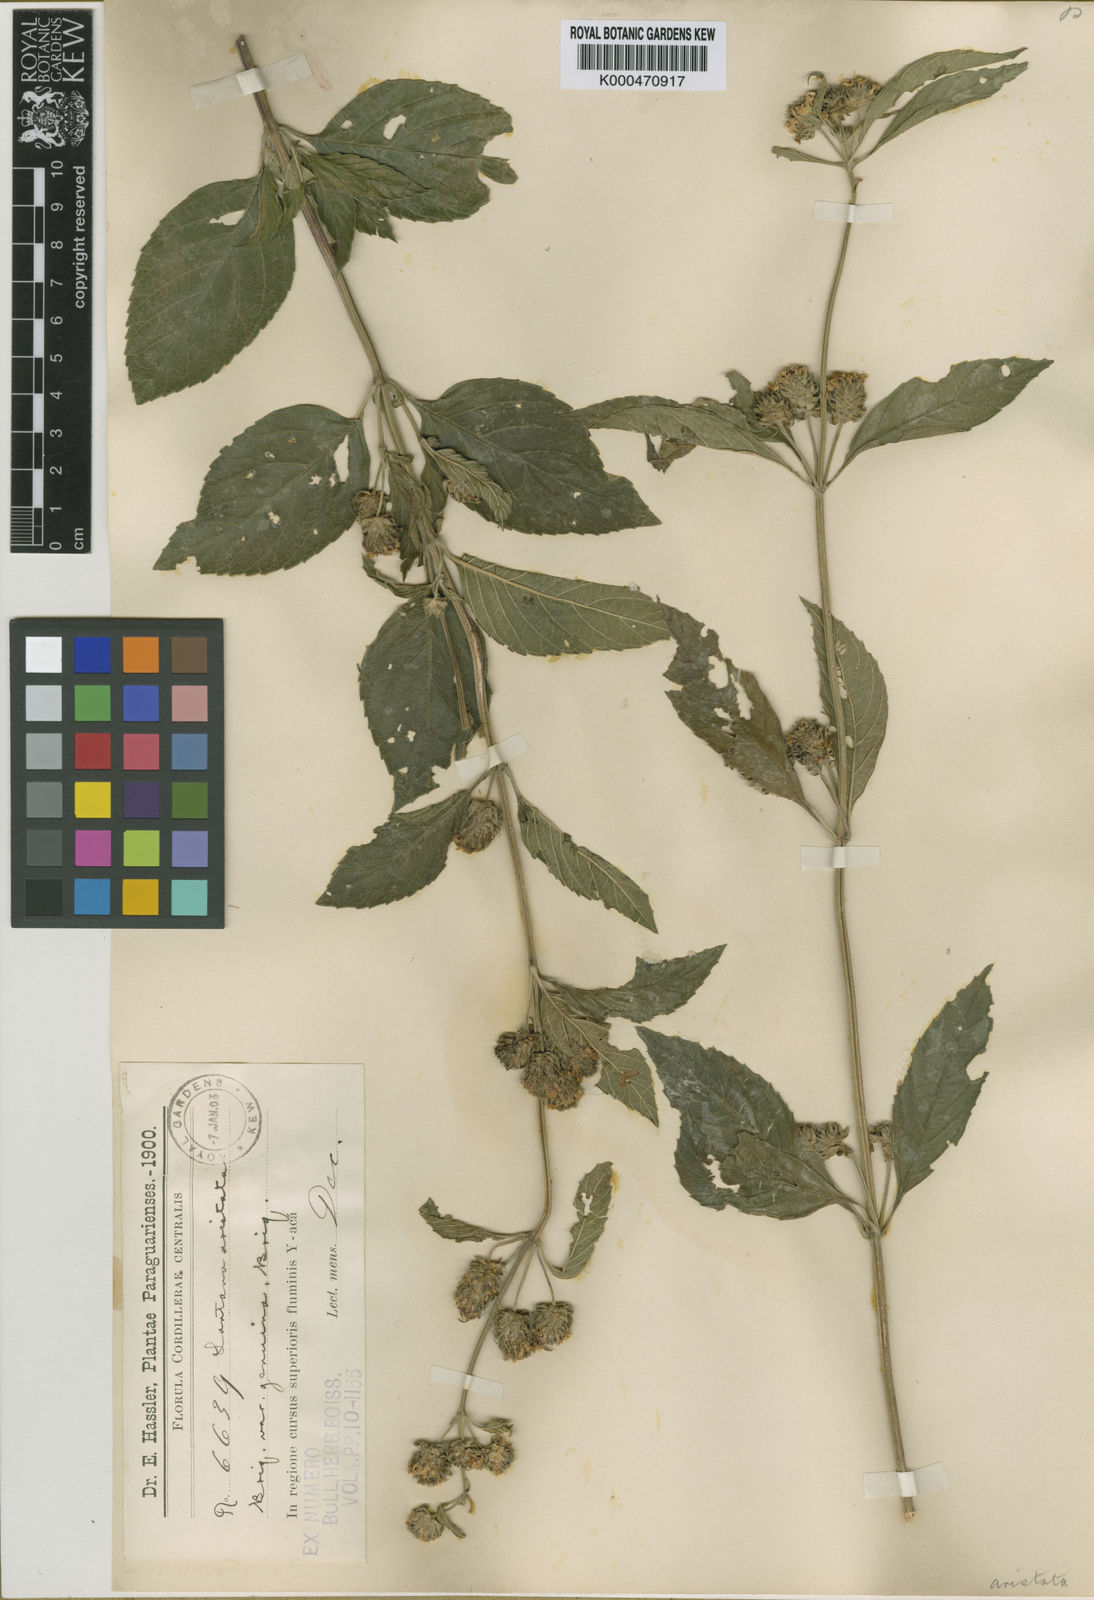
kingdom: Plantae
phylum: Tracheophyta
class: Magnoliopsida
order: Lamiales
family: Verbenaceae
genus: Lippia
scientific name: Lippia aristata
